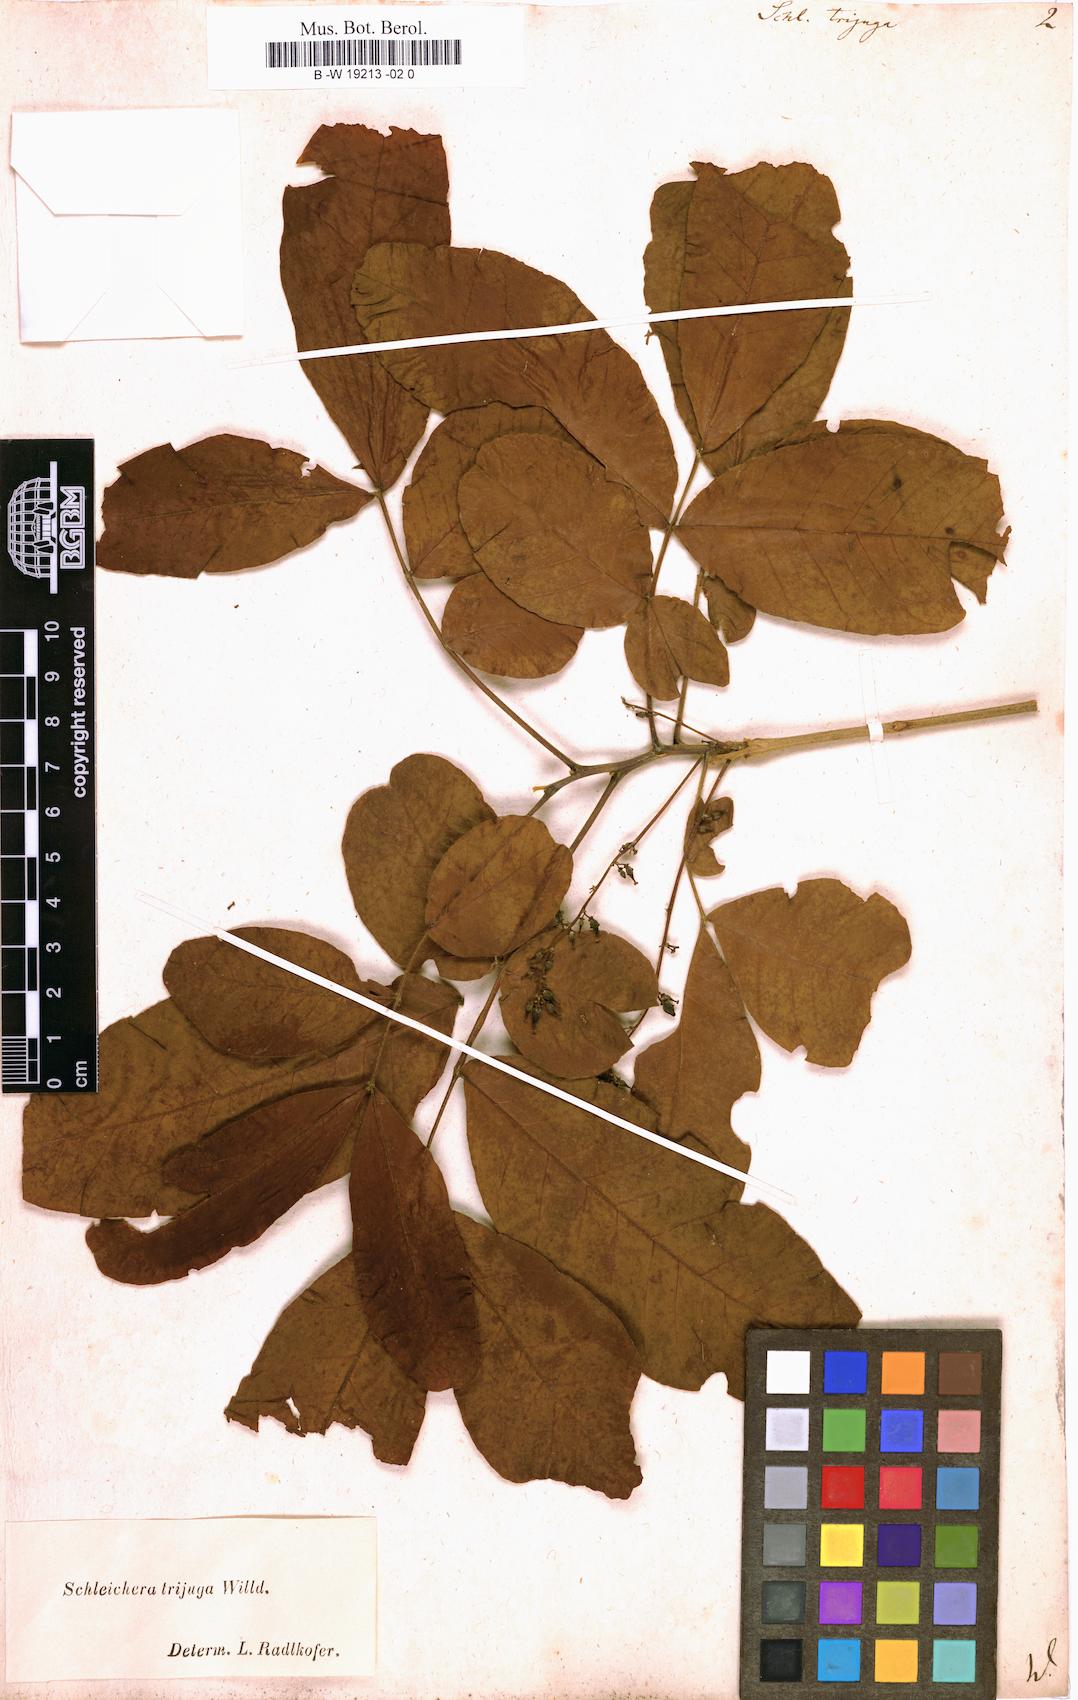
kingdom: Plantae
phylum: Tracheophyta
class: Magnoliopsida
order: Sapindales
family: Sapindaceae
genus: Schleichera
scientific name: Schleichera oleosa
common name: Malay lactree
